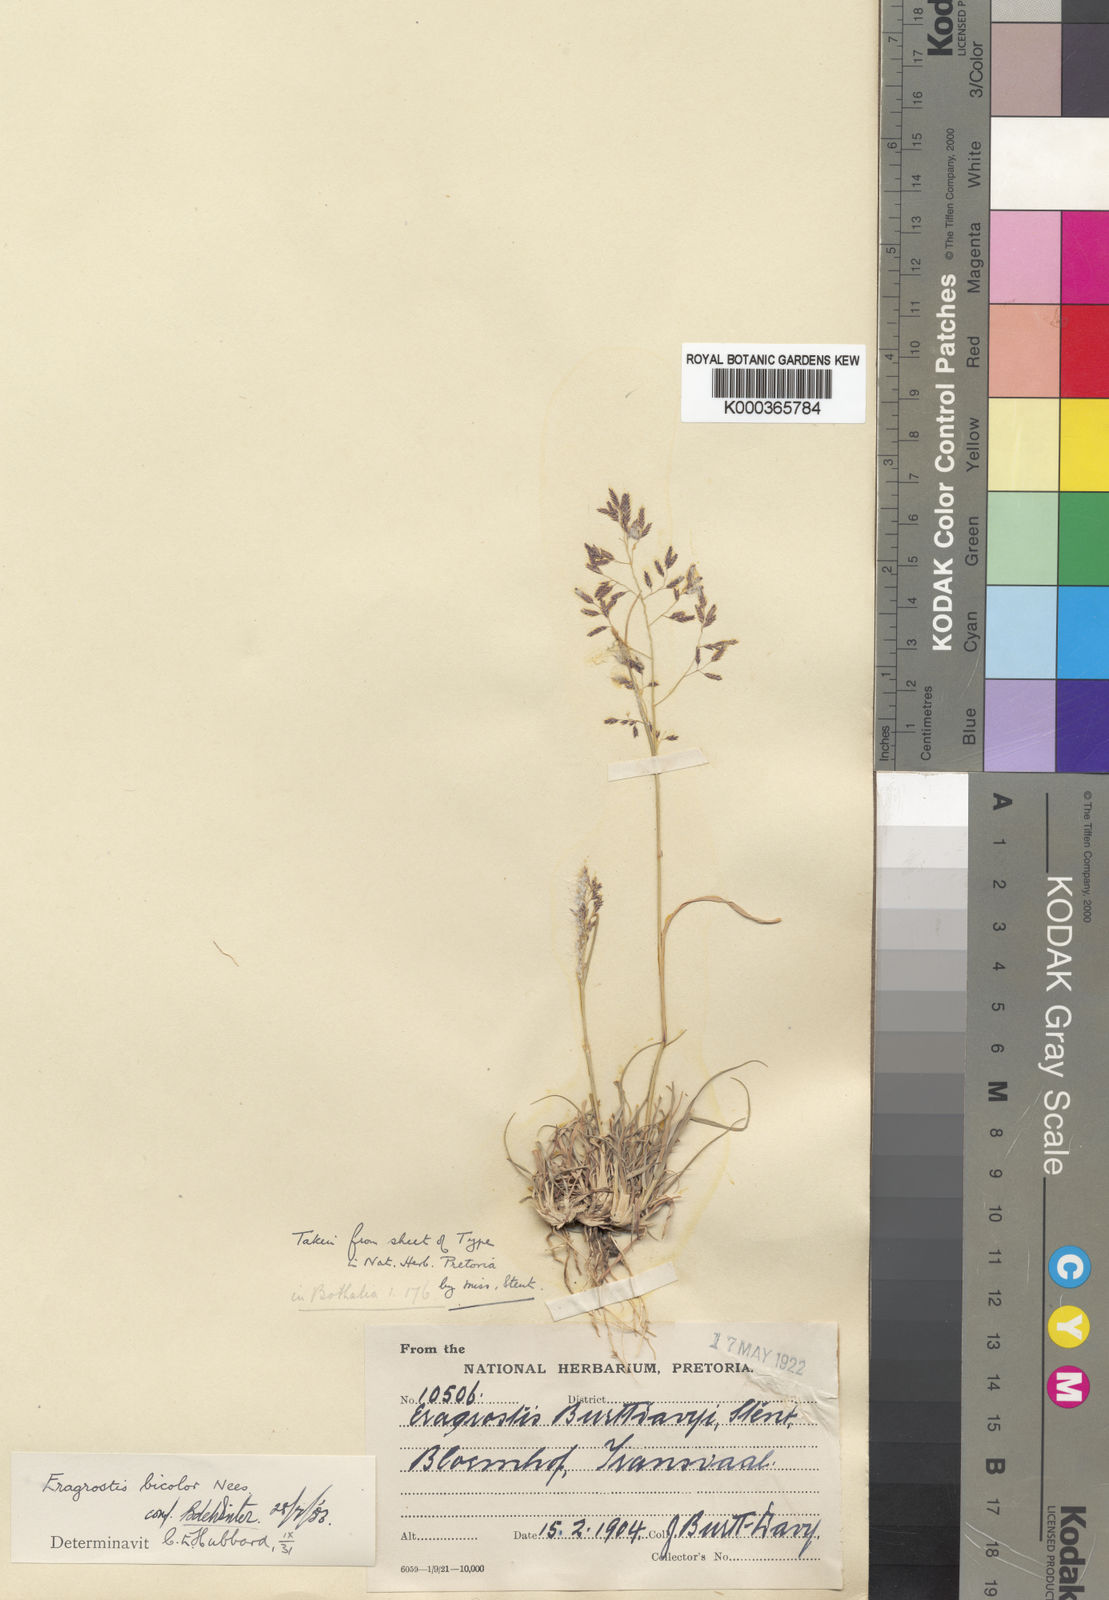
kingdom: Plantae
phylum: Tracheophyta
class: Liliopsida
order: Poales
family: Poaceae
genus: Eragrostis
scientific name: Eragrostis bicolor
